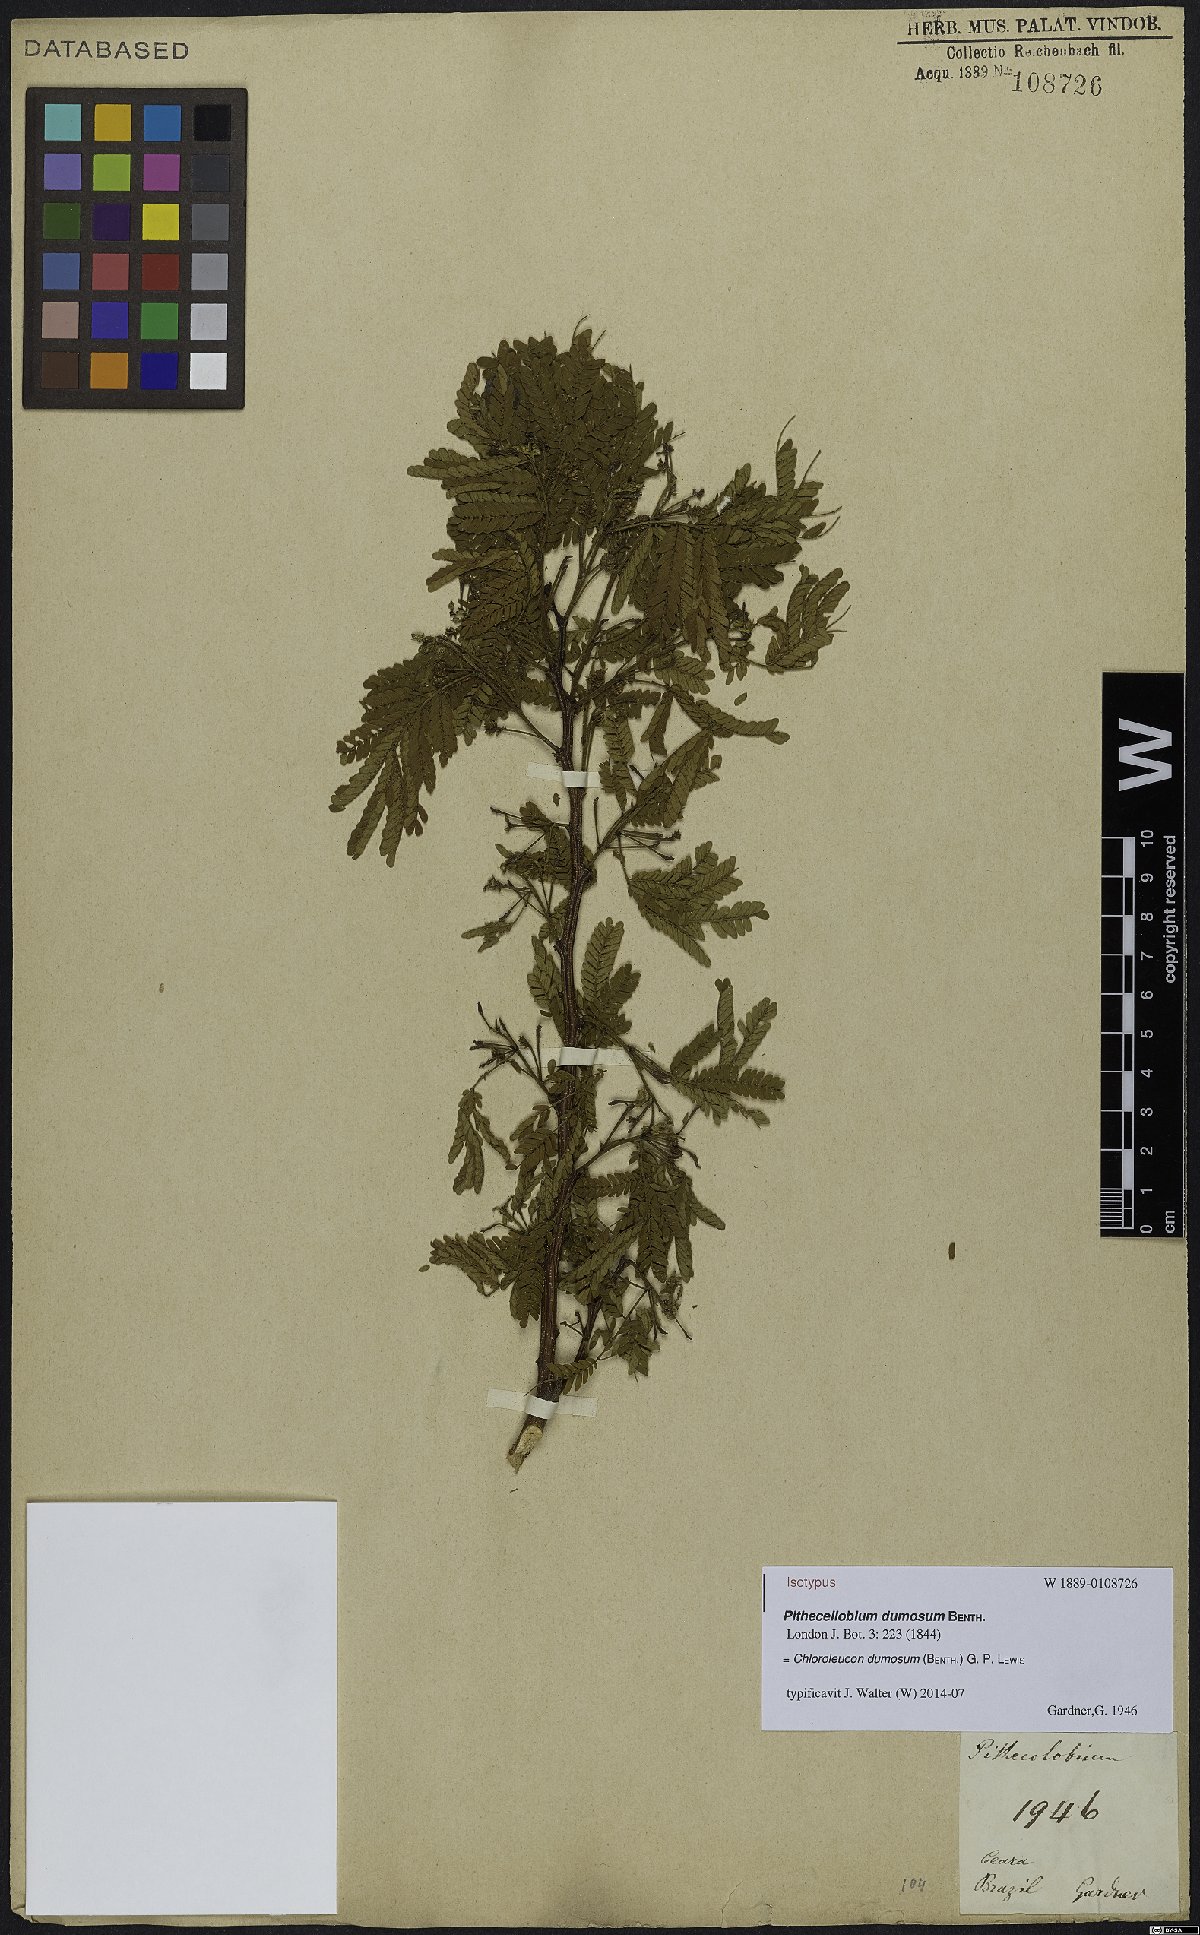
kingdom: Plantae
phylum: Tracheophyta
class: Magnoliopsida
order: Fabales
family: Fabaceae
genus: Chloroleucon
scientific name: Chloroleucon dumosum
